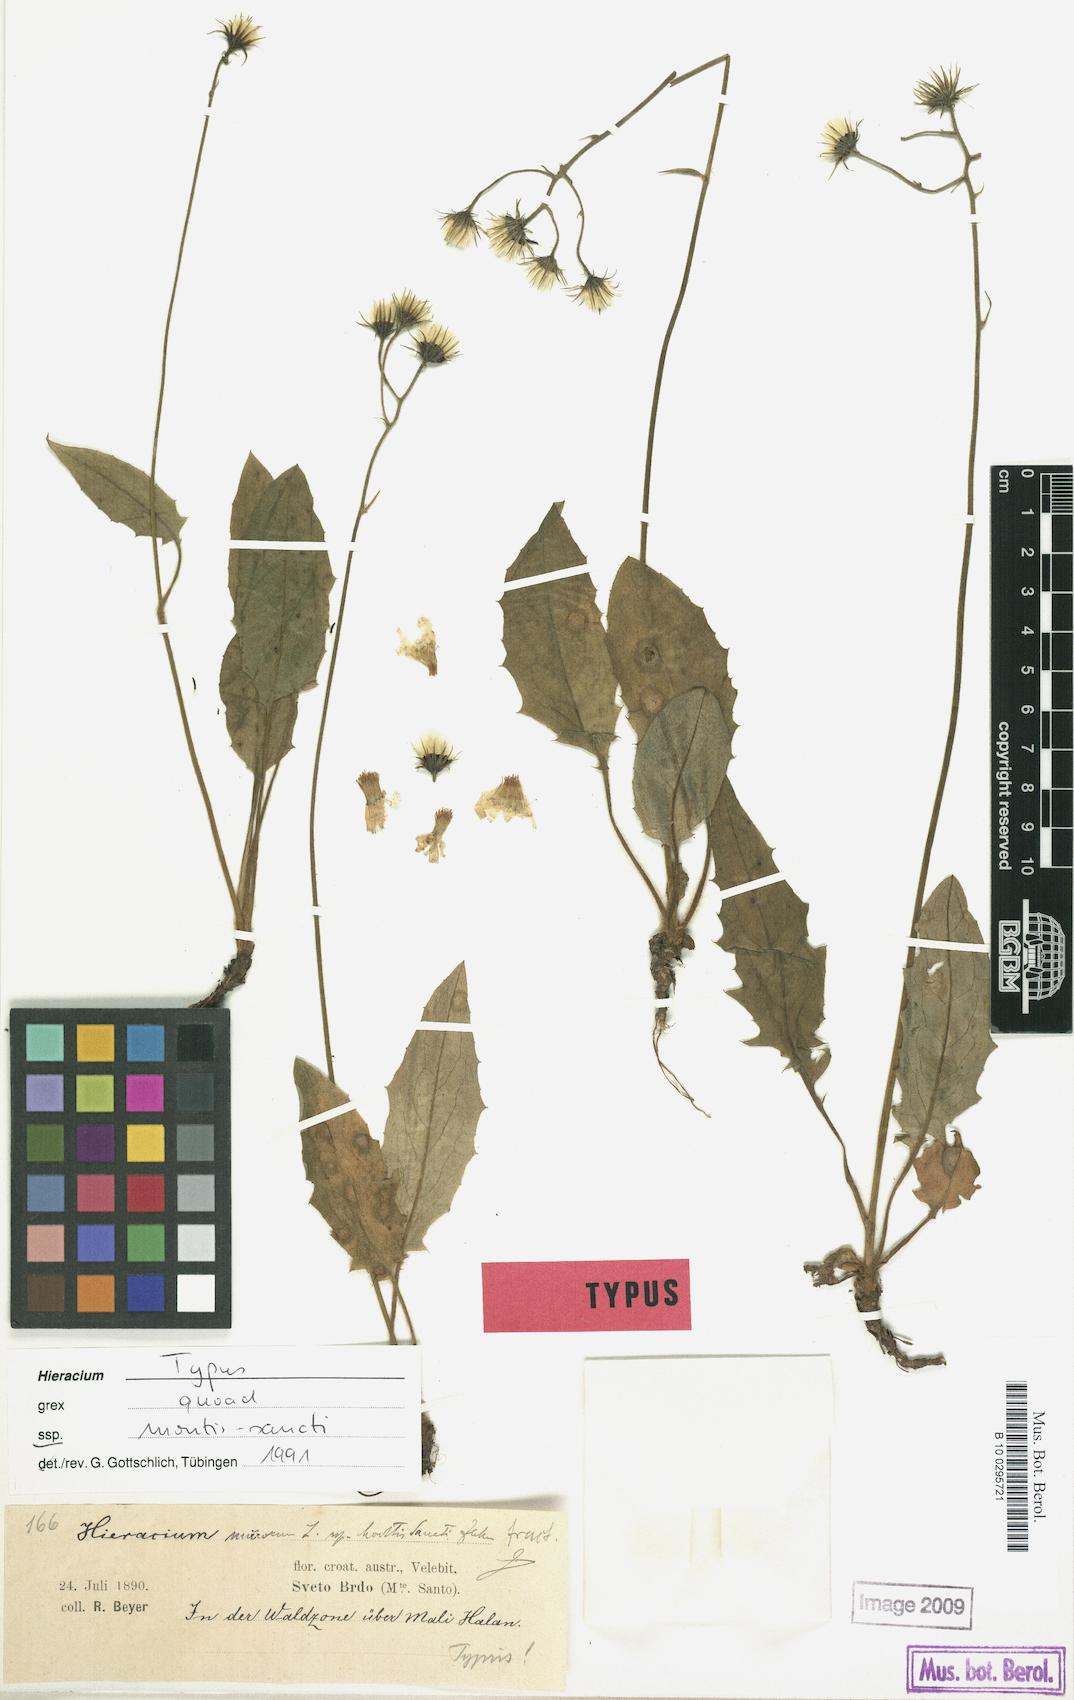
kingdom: Plantae
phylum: Tracheophyta
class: Magnoliopsida
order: Asterales
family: Asteraceae
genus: Hieracium
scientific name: Hieracium murorum
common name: Wall hawkweed
